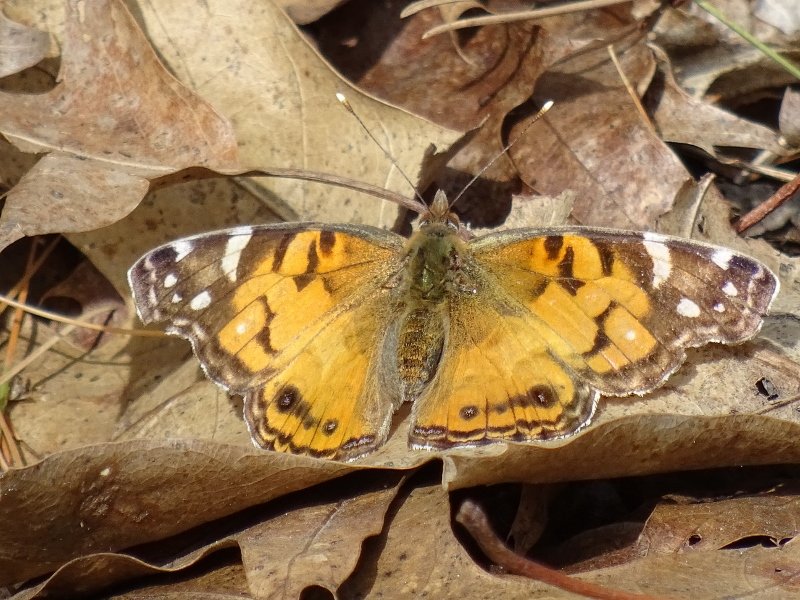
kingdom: Animalia
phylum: Arthropoda
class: Insecta
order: Lepidoptera
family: Nymphalidae
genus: Vanessa
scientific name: Vanessa virginiensis
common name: American Lady
